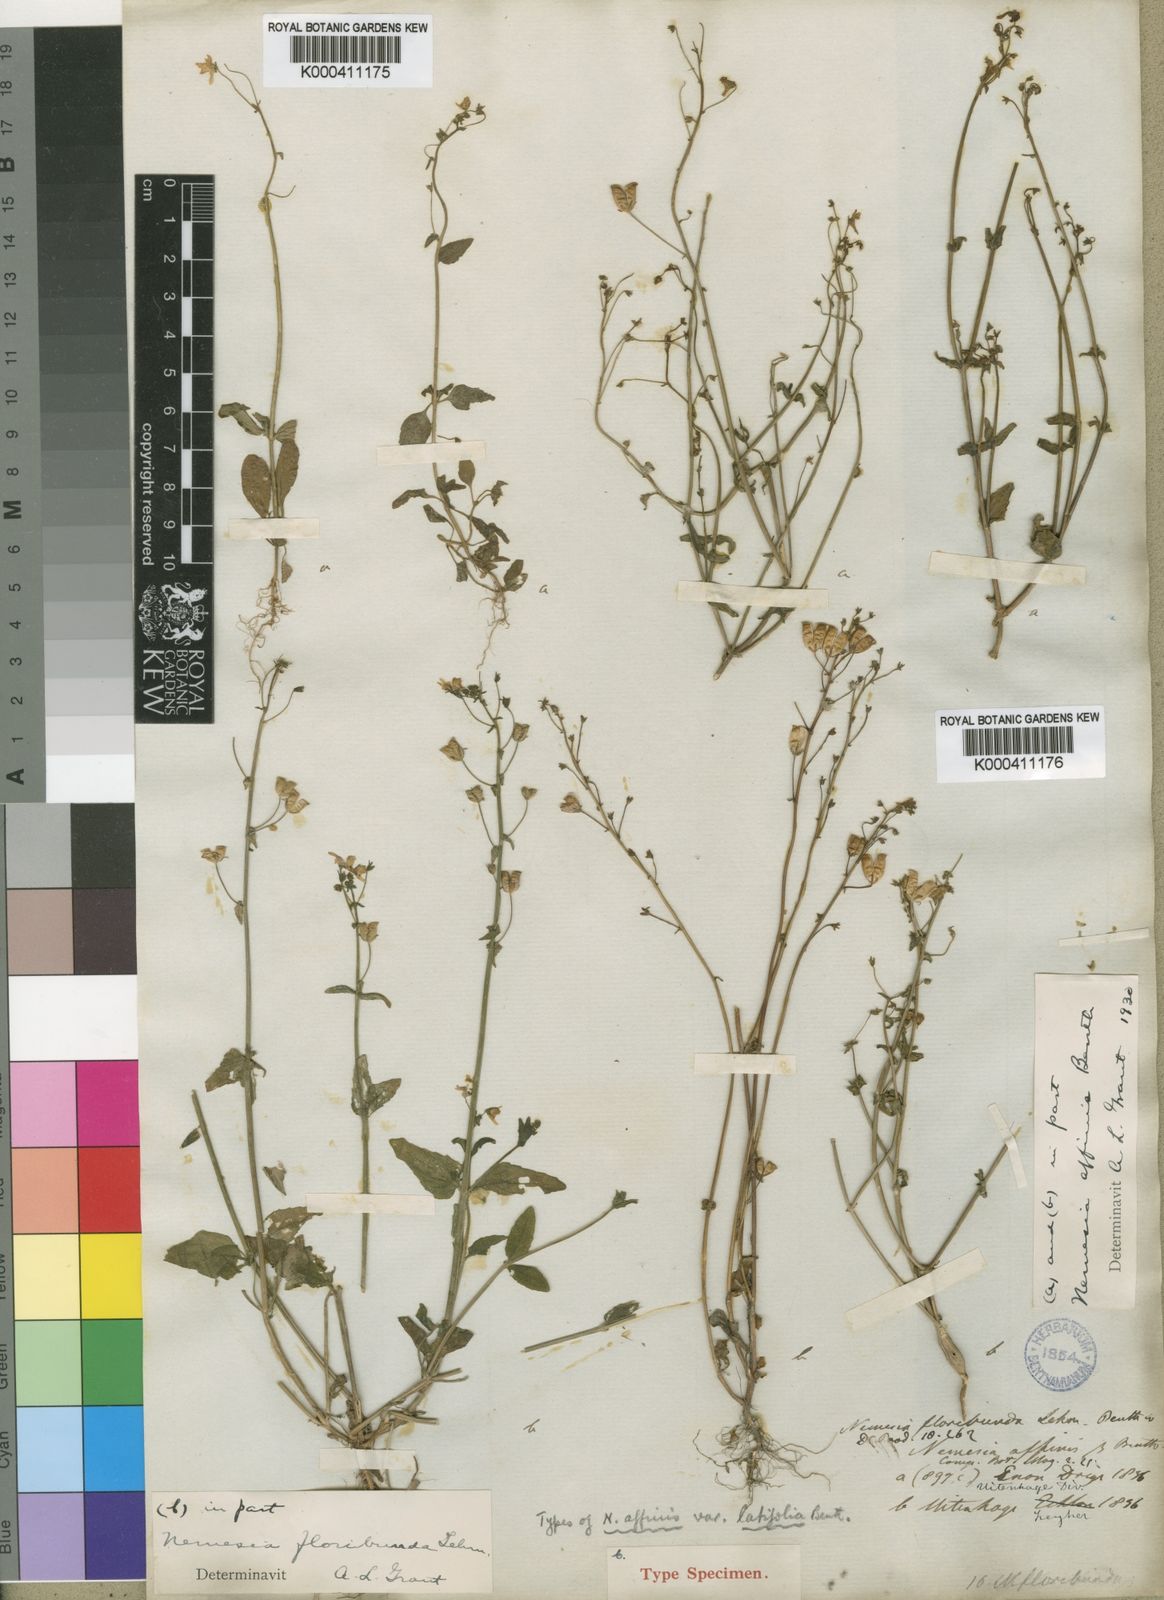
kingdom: Plantae
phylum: Tracheophyta
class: Magnoliopsida
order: Lamiales
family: Scrophulariaceae
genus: Nemesia
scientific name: Nemesia floribunda
